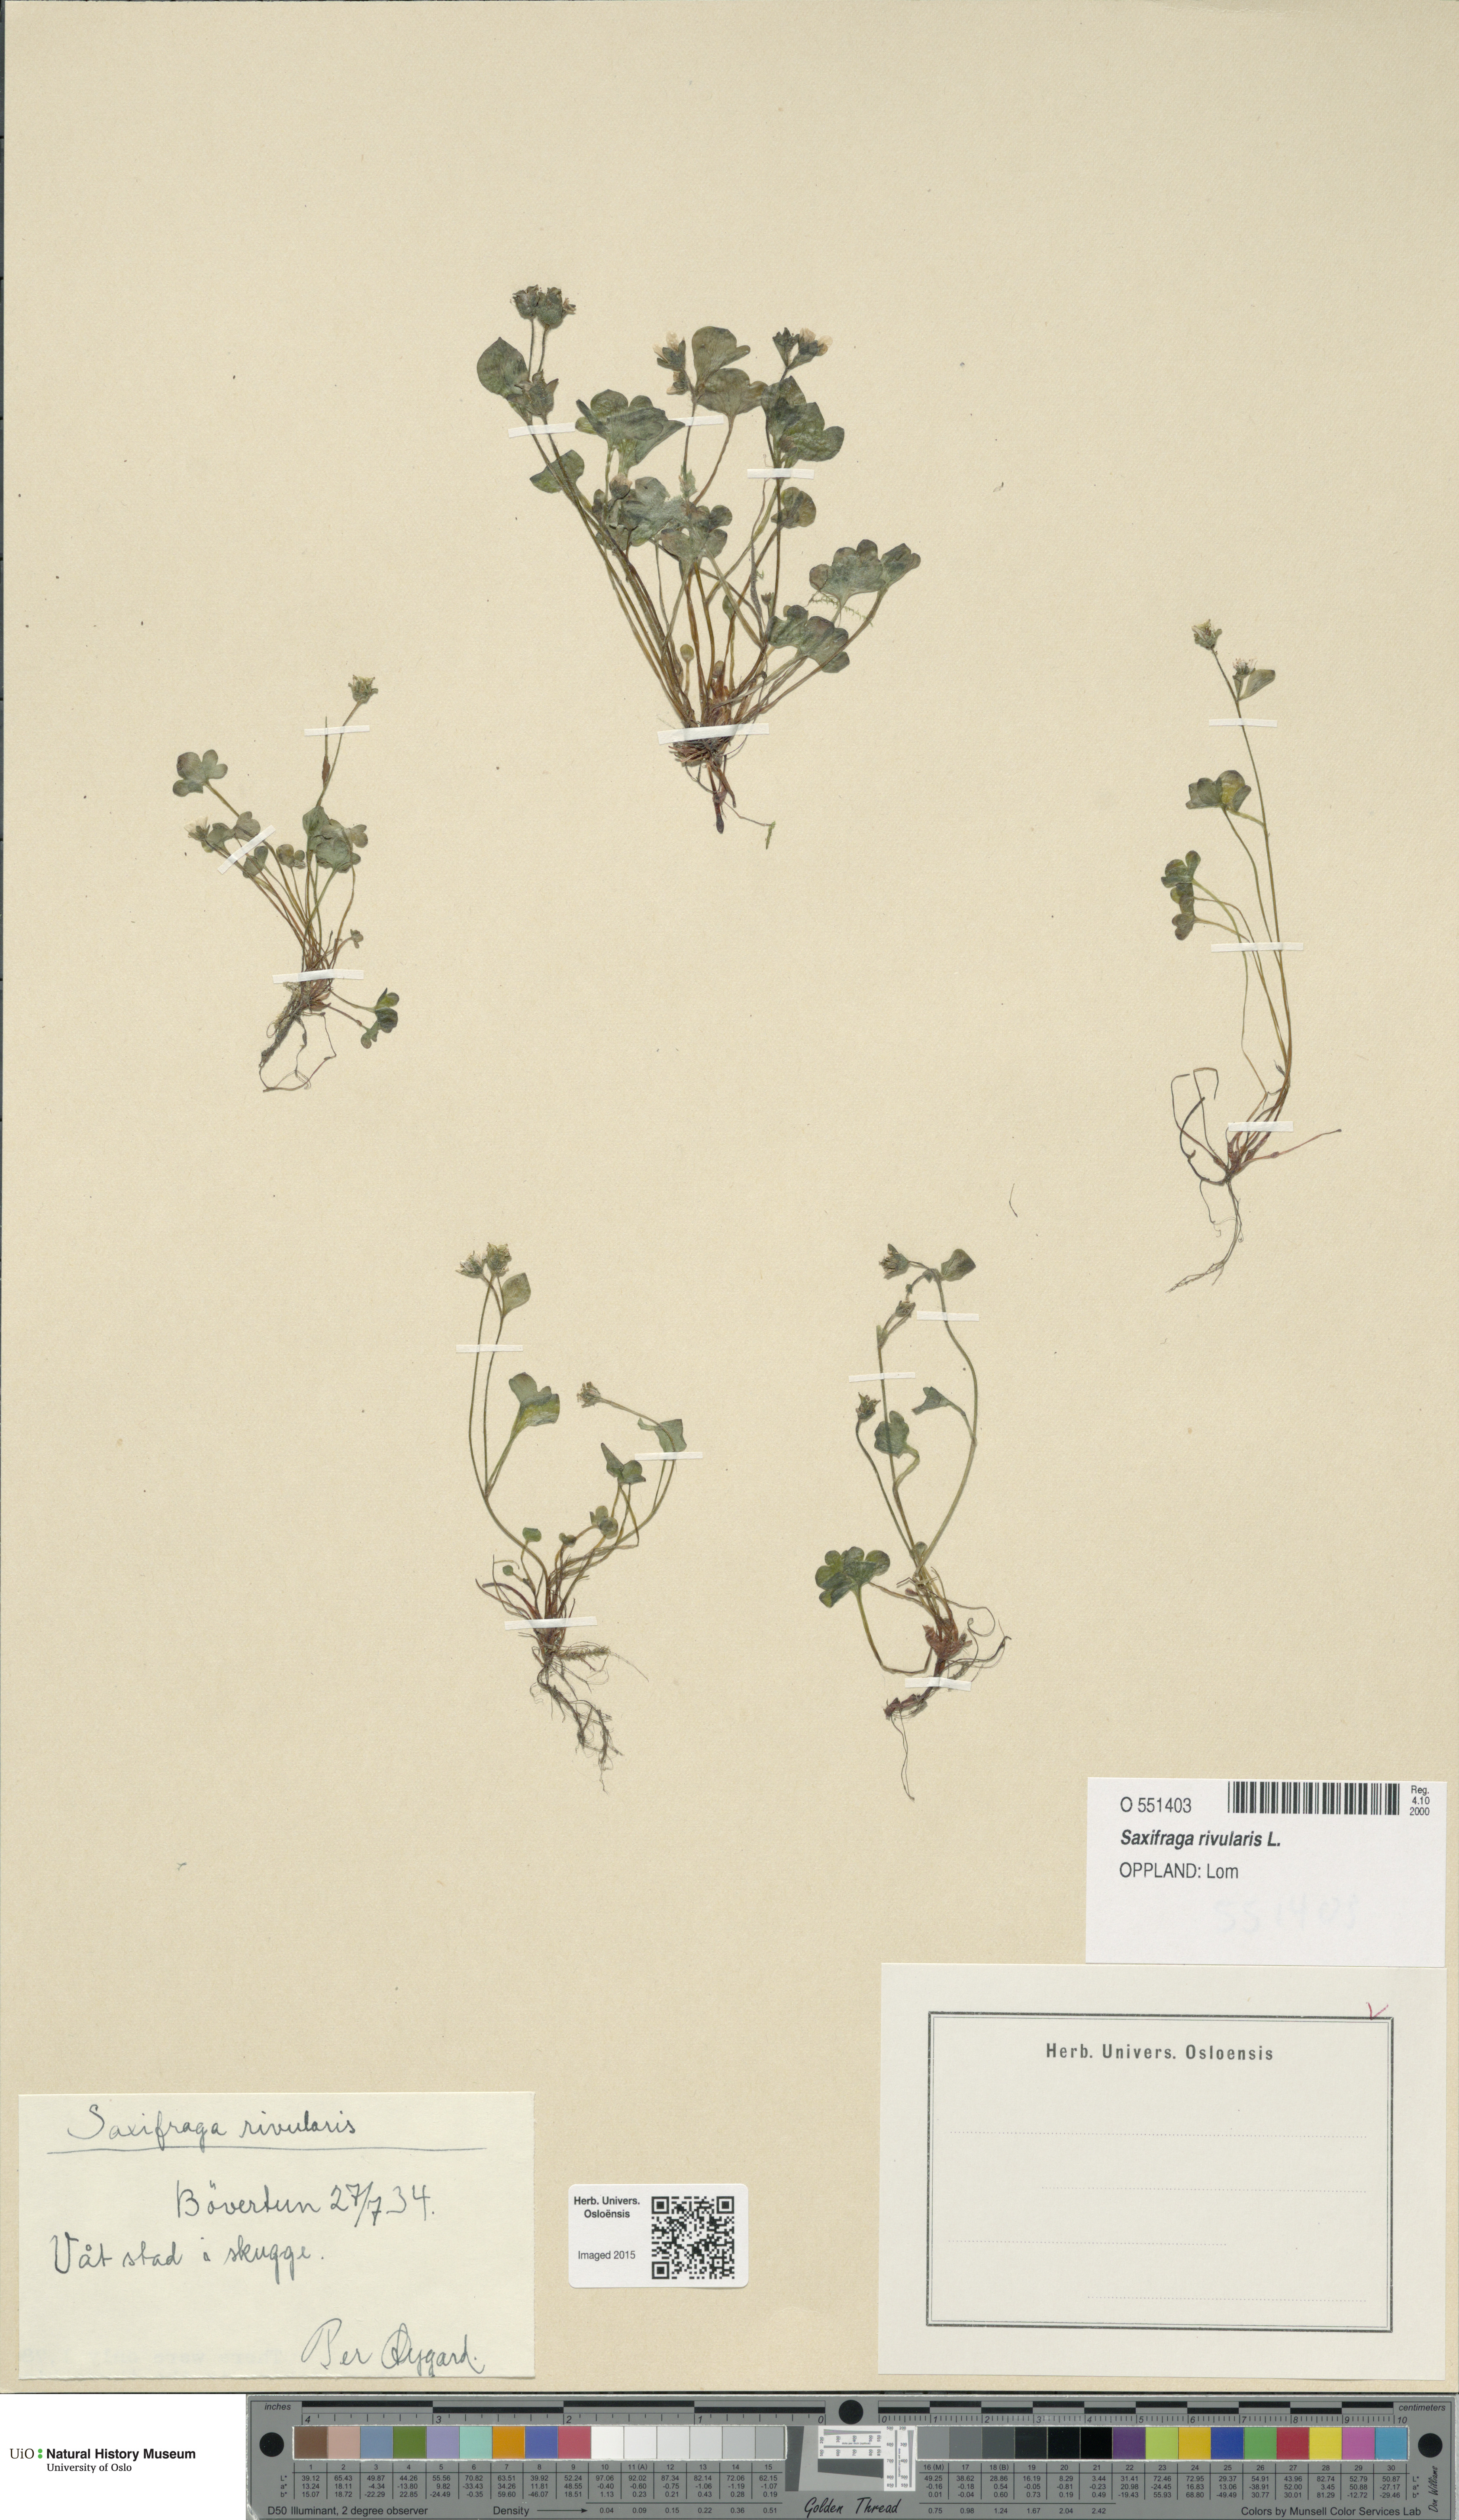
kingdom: Plantae
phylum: Tracheophyta
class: Magnoliopsida
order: Saxifragales
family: Saxifragaceae
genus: Saxifraga
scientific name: Saxifraga rivularis
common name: Highland saxifrage
